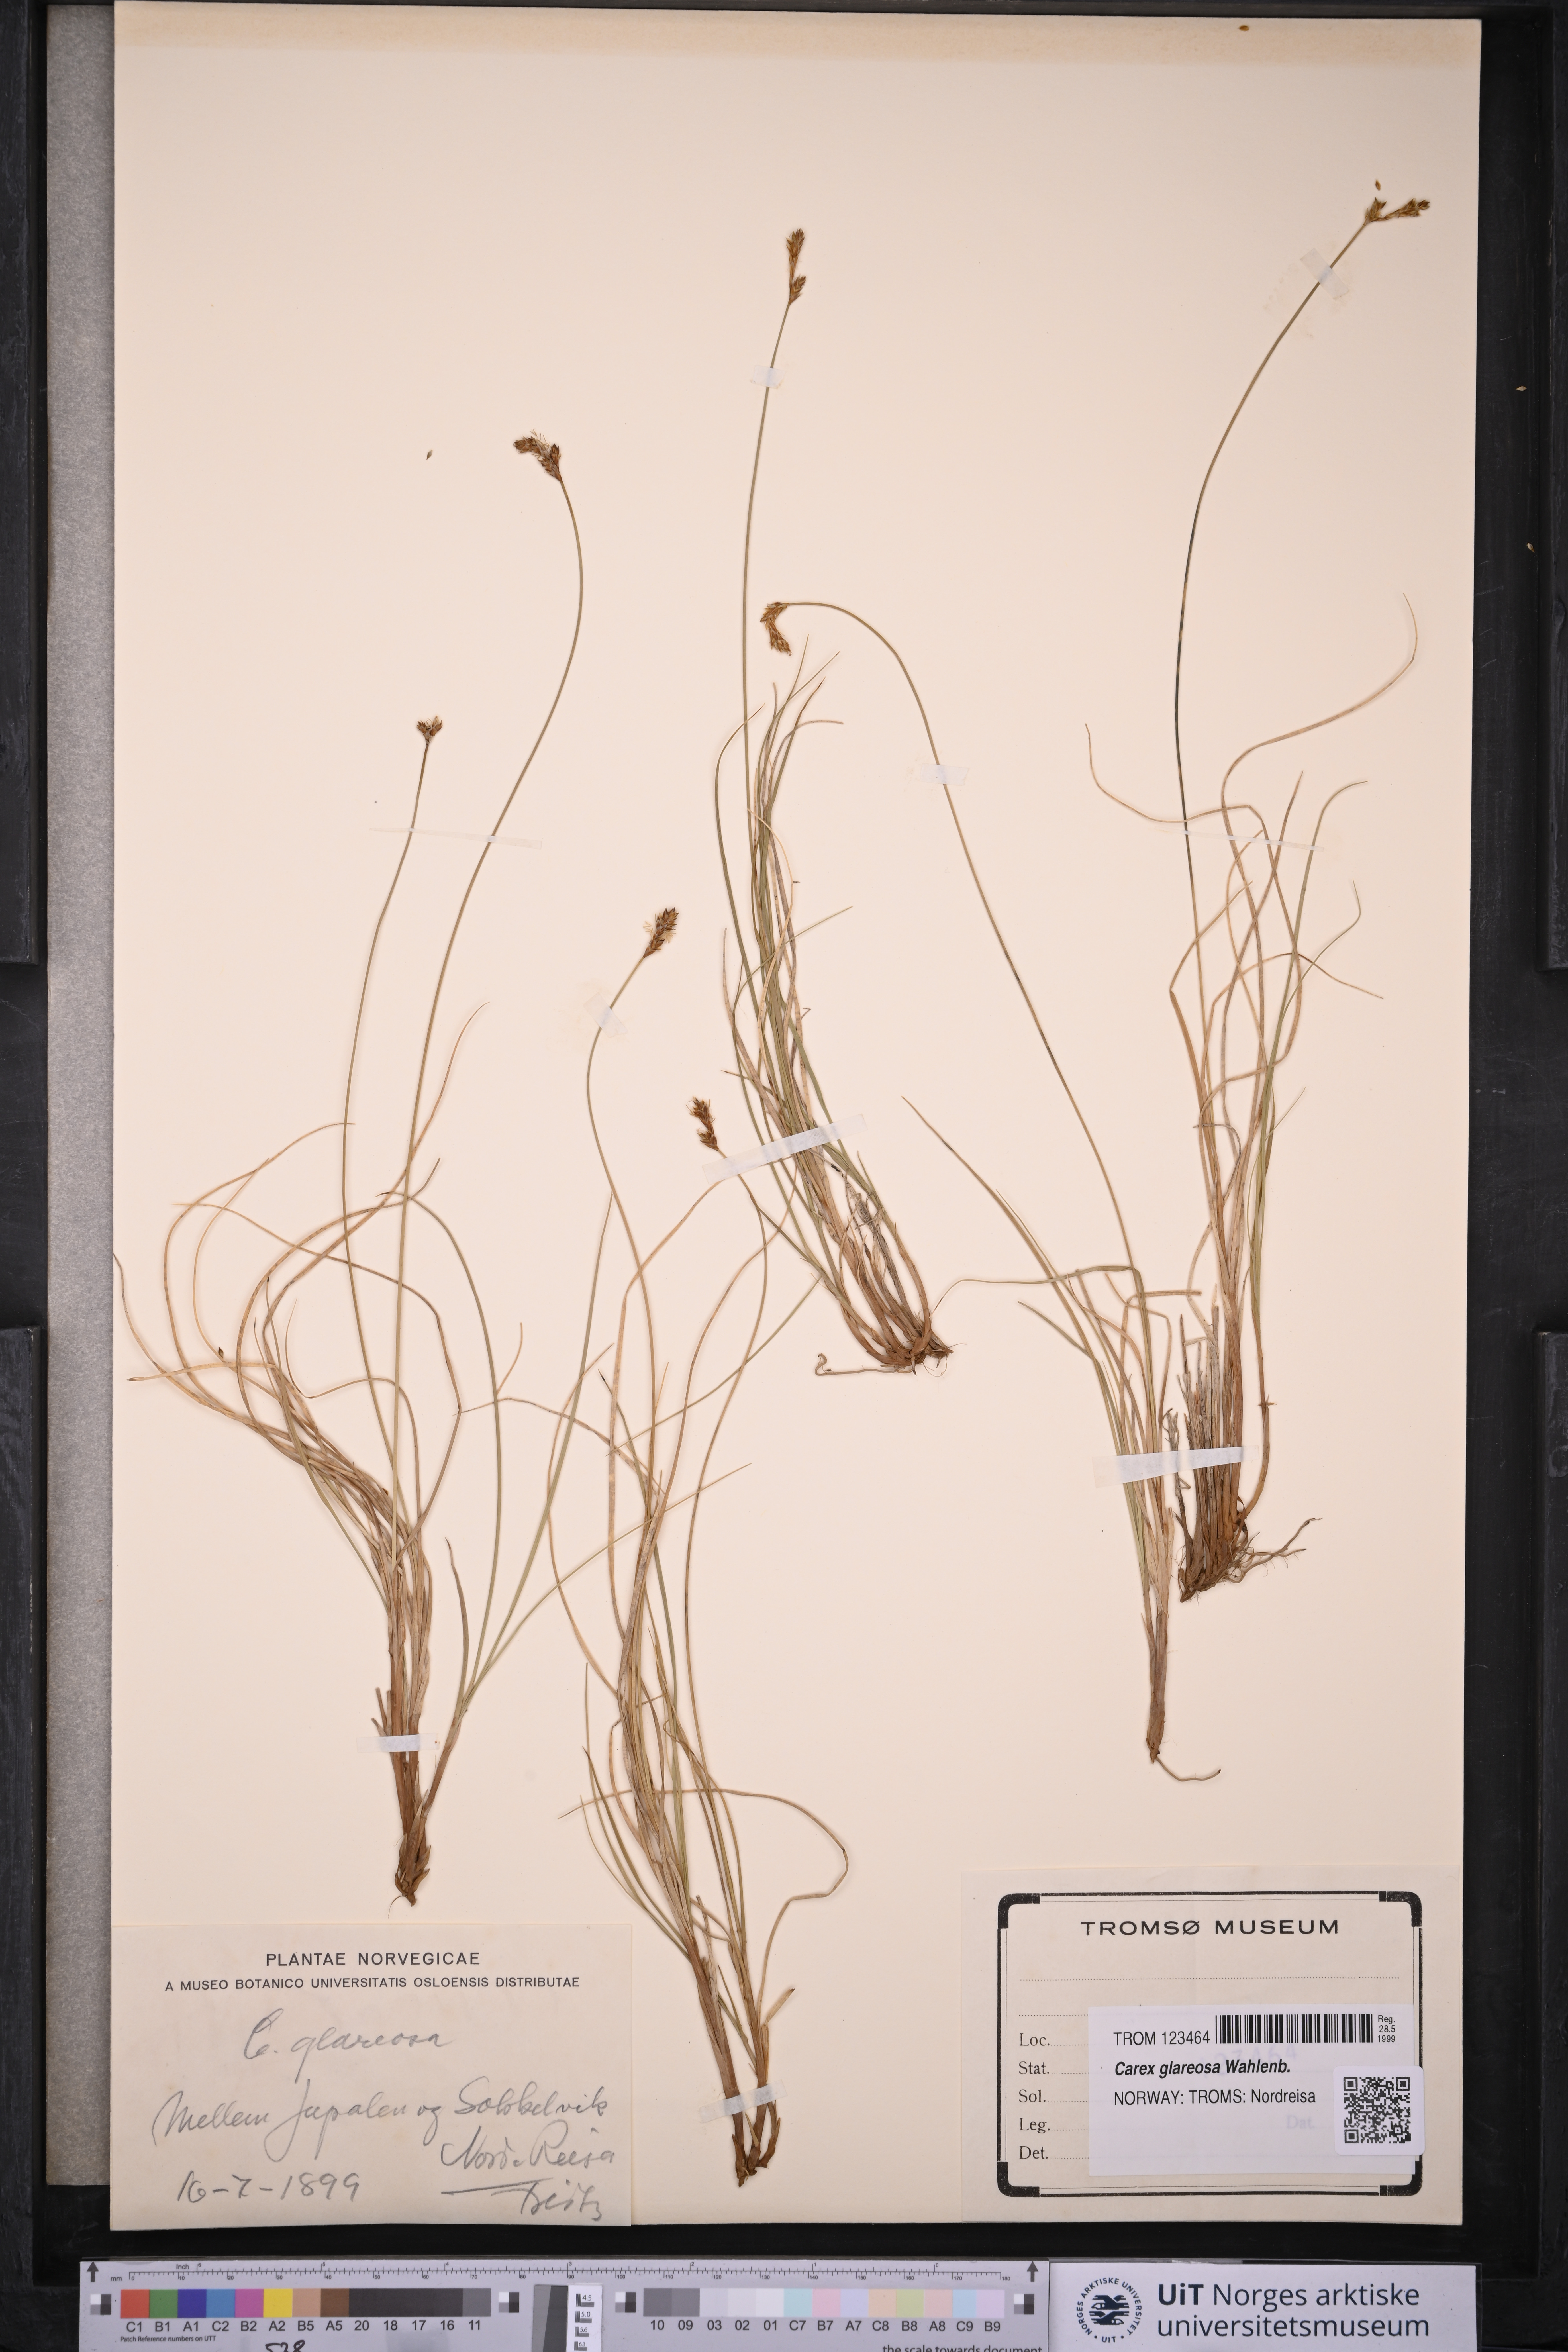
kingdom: Plantae
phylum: Tracheophyta
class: Liliopsida
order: Poales
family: Cyperaceae
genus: Carex
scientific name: Carex glareosa
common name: Clustered sedge
